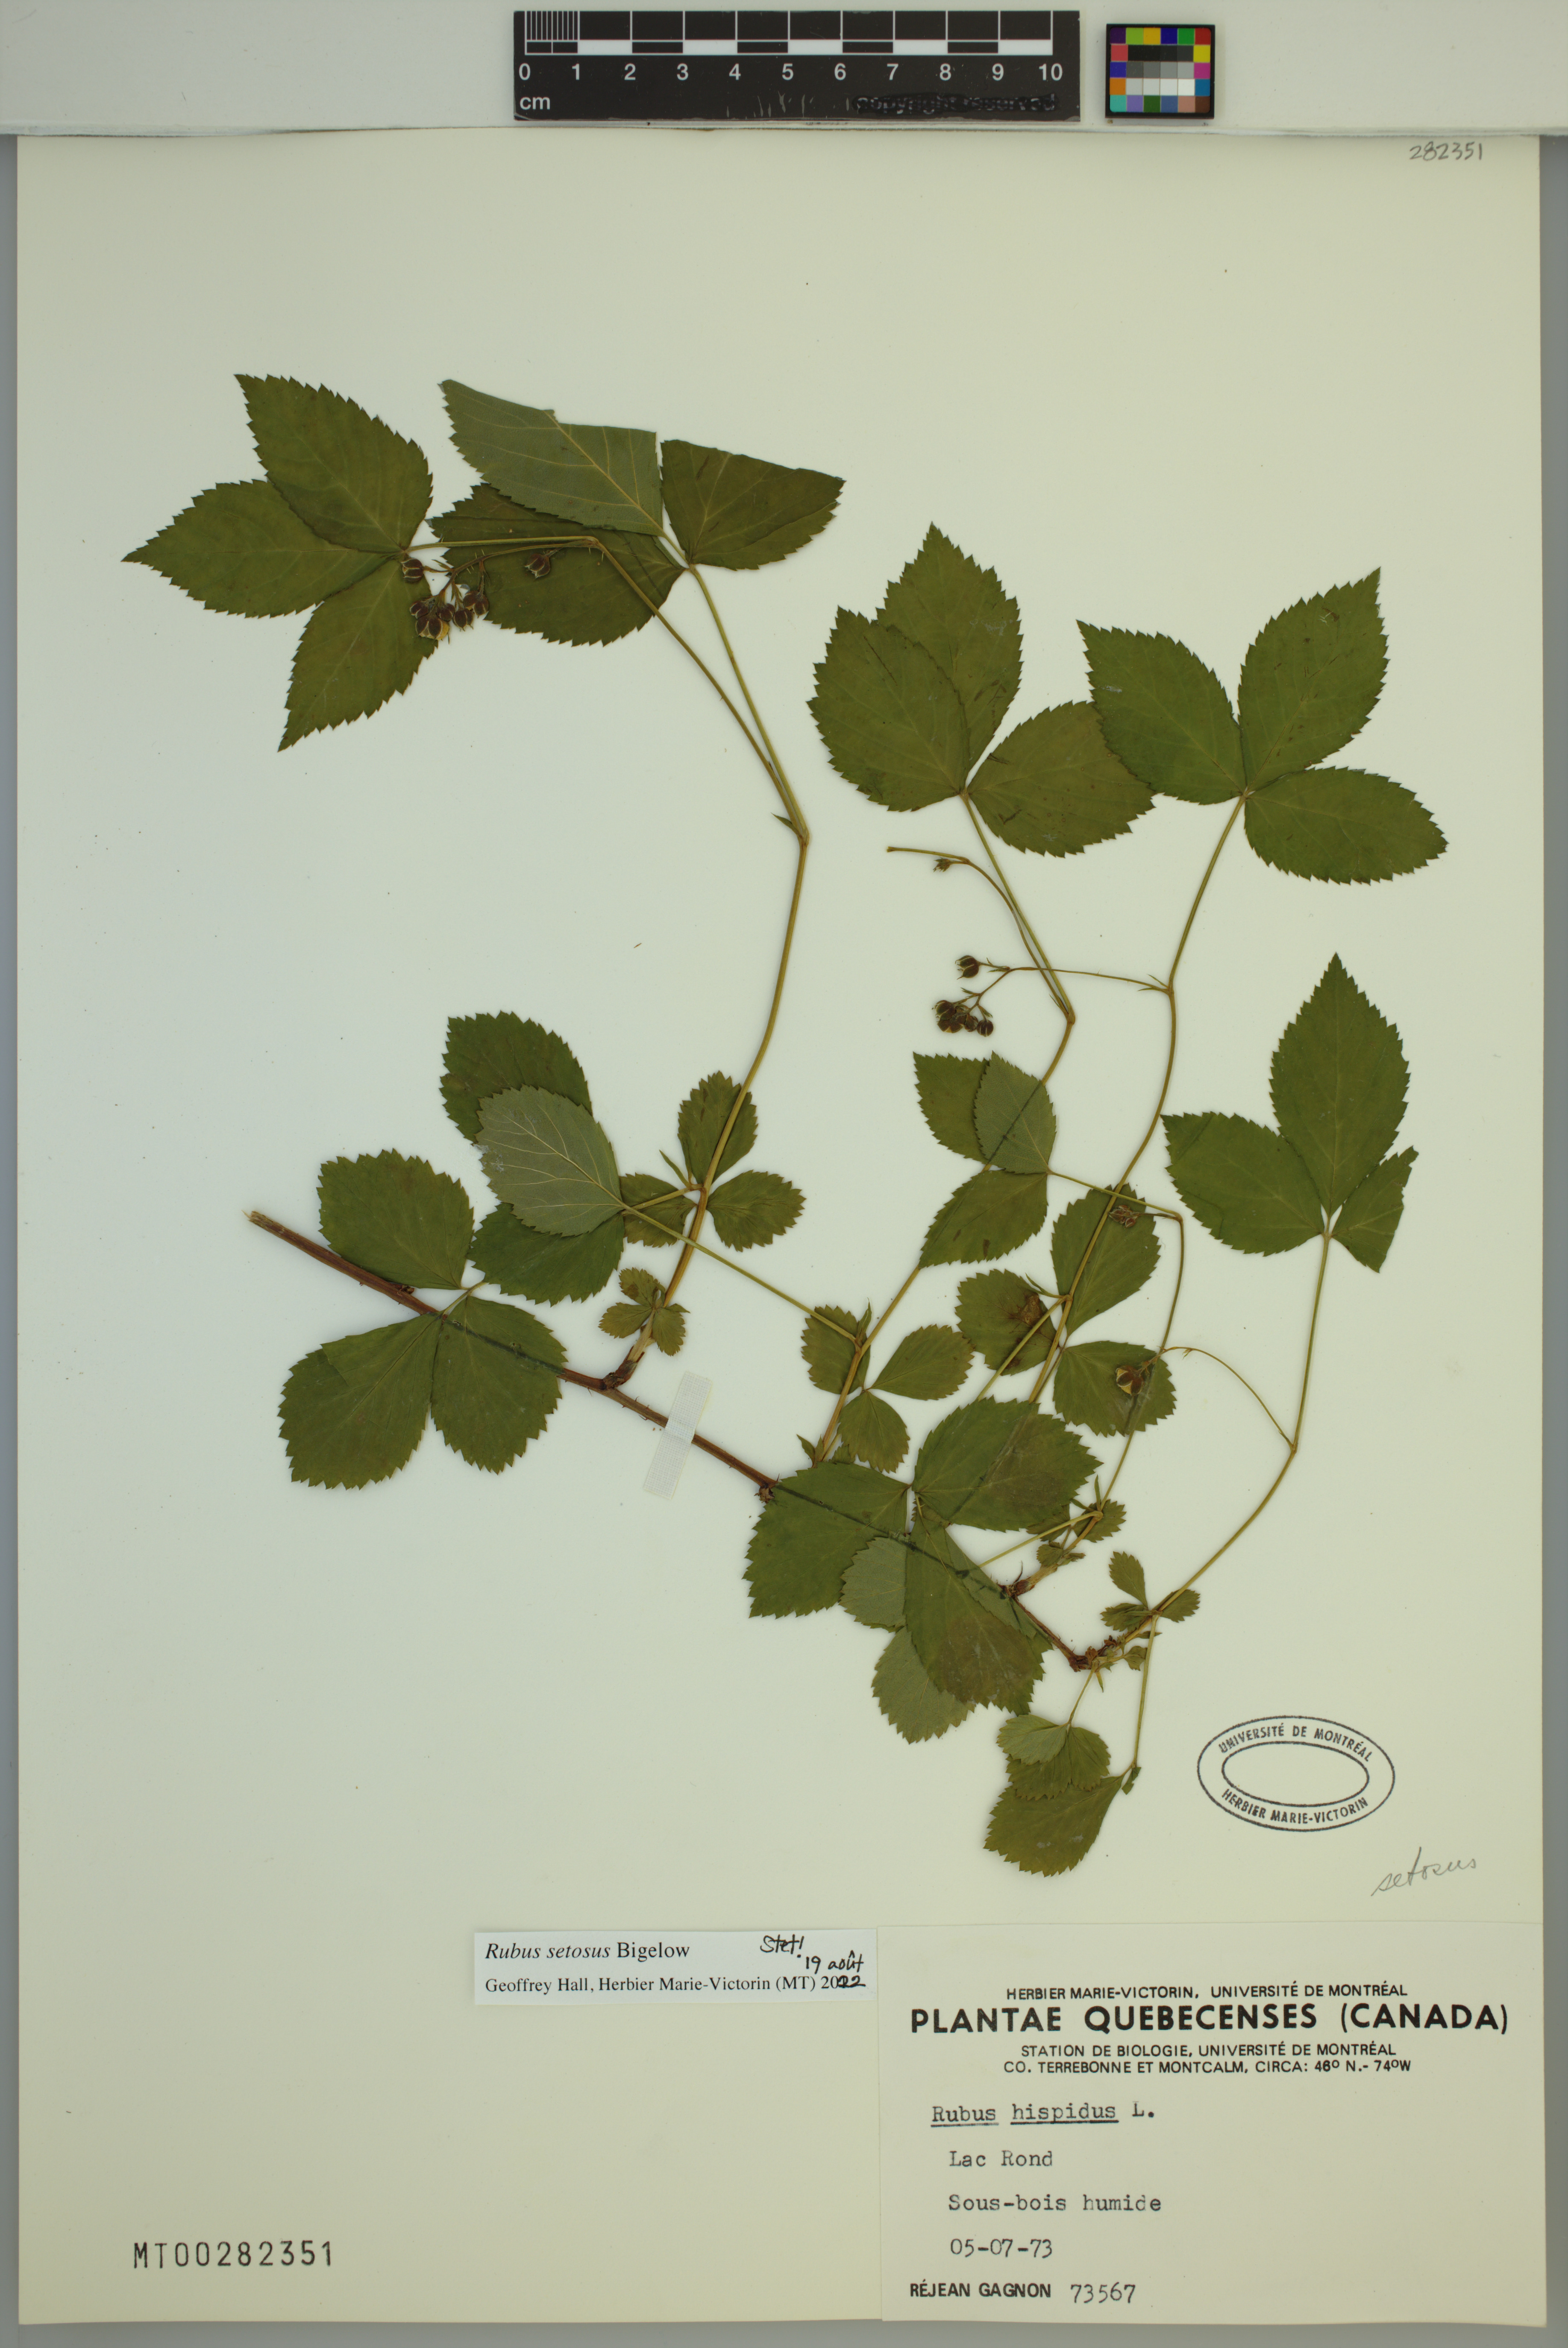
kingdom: Plantae
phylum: Tracheophyta
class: Magnoliopsida
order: Rosales
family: Rosaceae
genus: Rubus
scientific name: Rubus setosus
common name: Bristly blackberry
